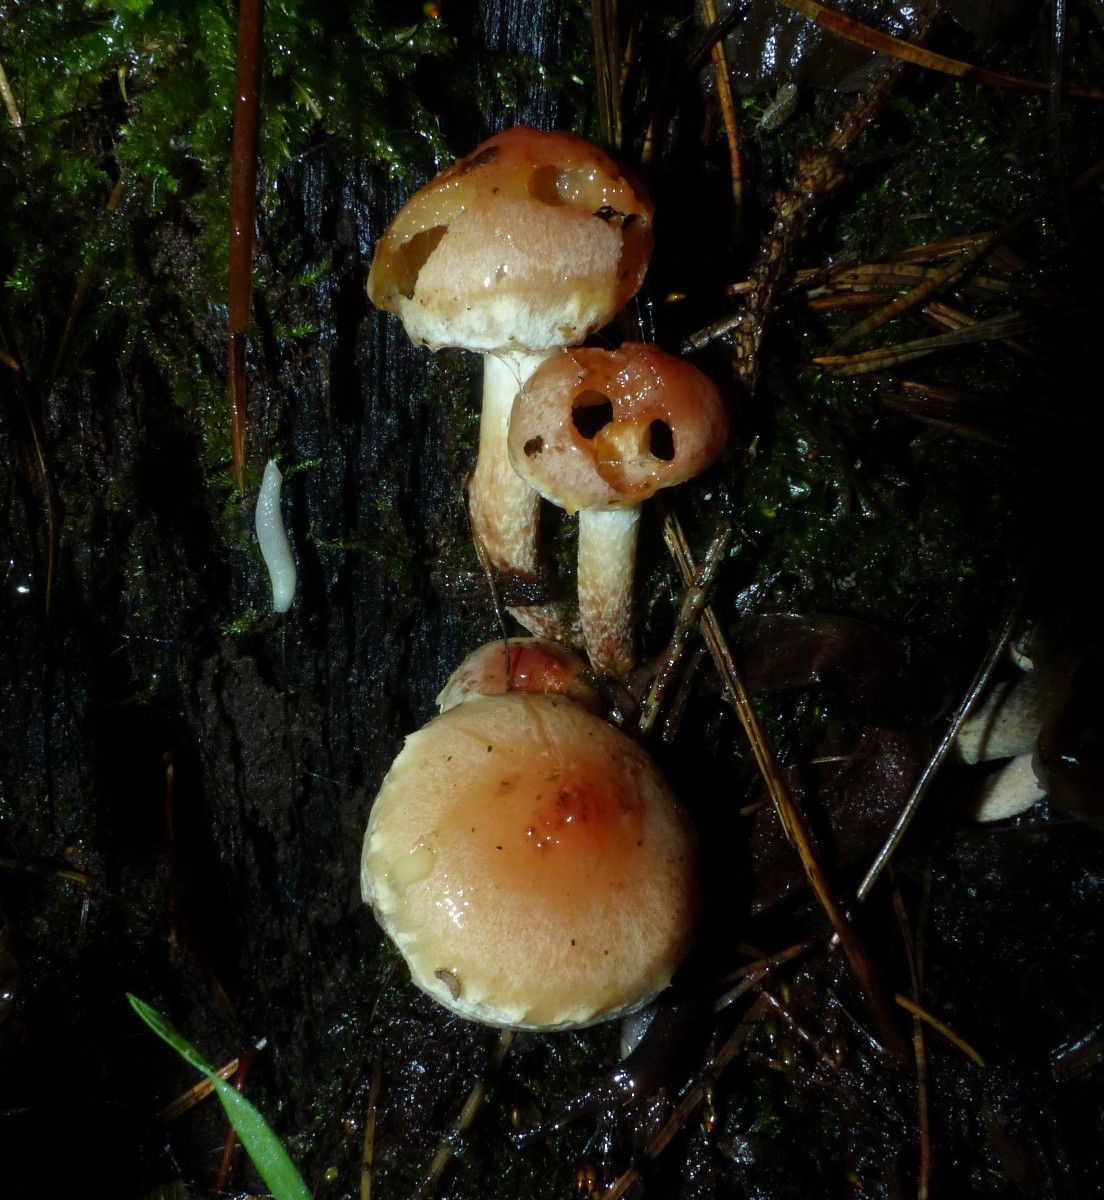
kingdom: Fungi
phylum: Basidiomycota
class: Agaricomycetes
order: Agaricales
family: Strophariaceae
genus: Hypholoma
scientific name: Hypholoma lateritium
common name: teglrød svovlhat
